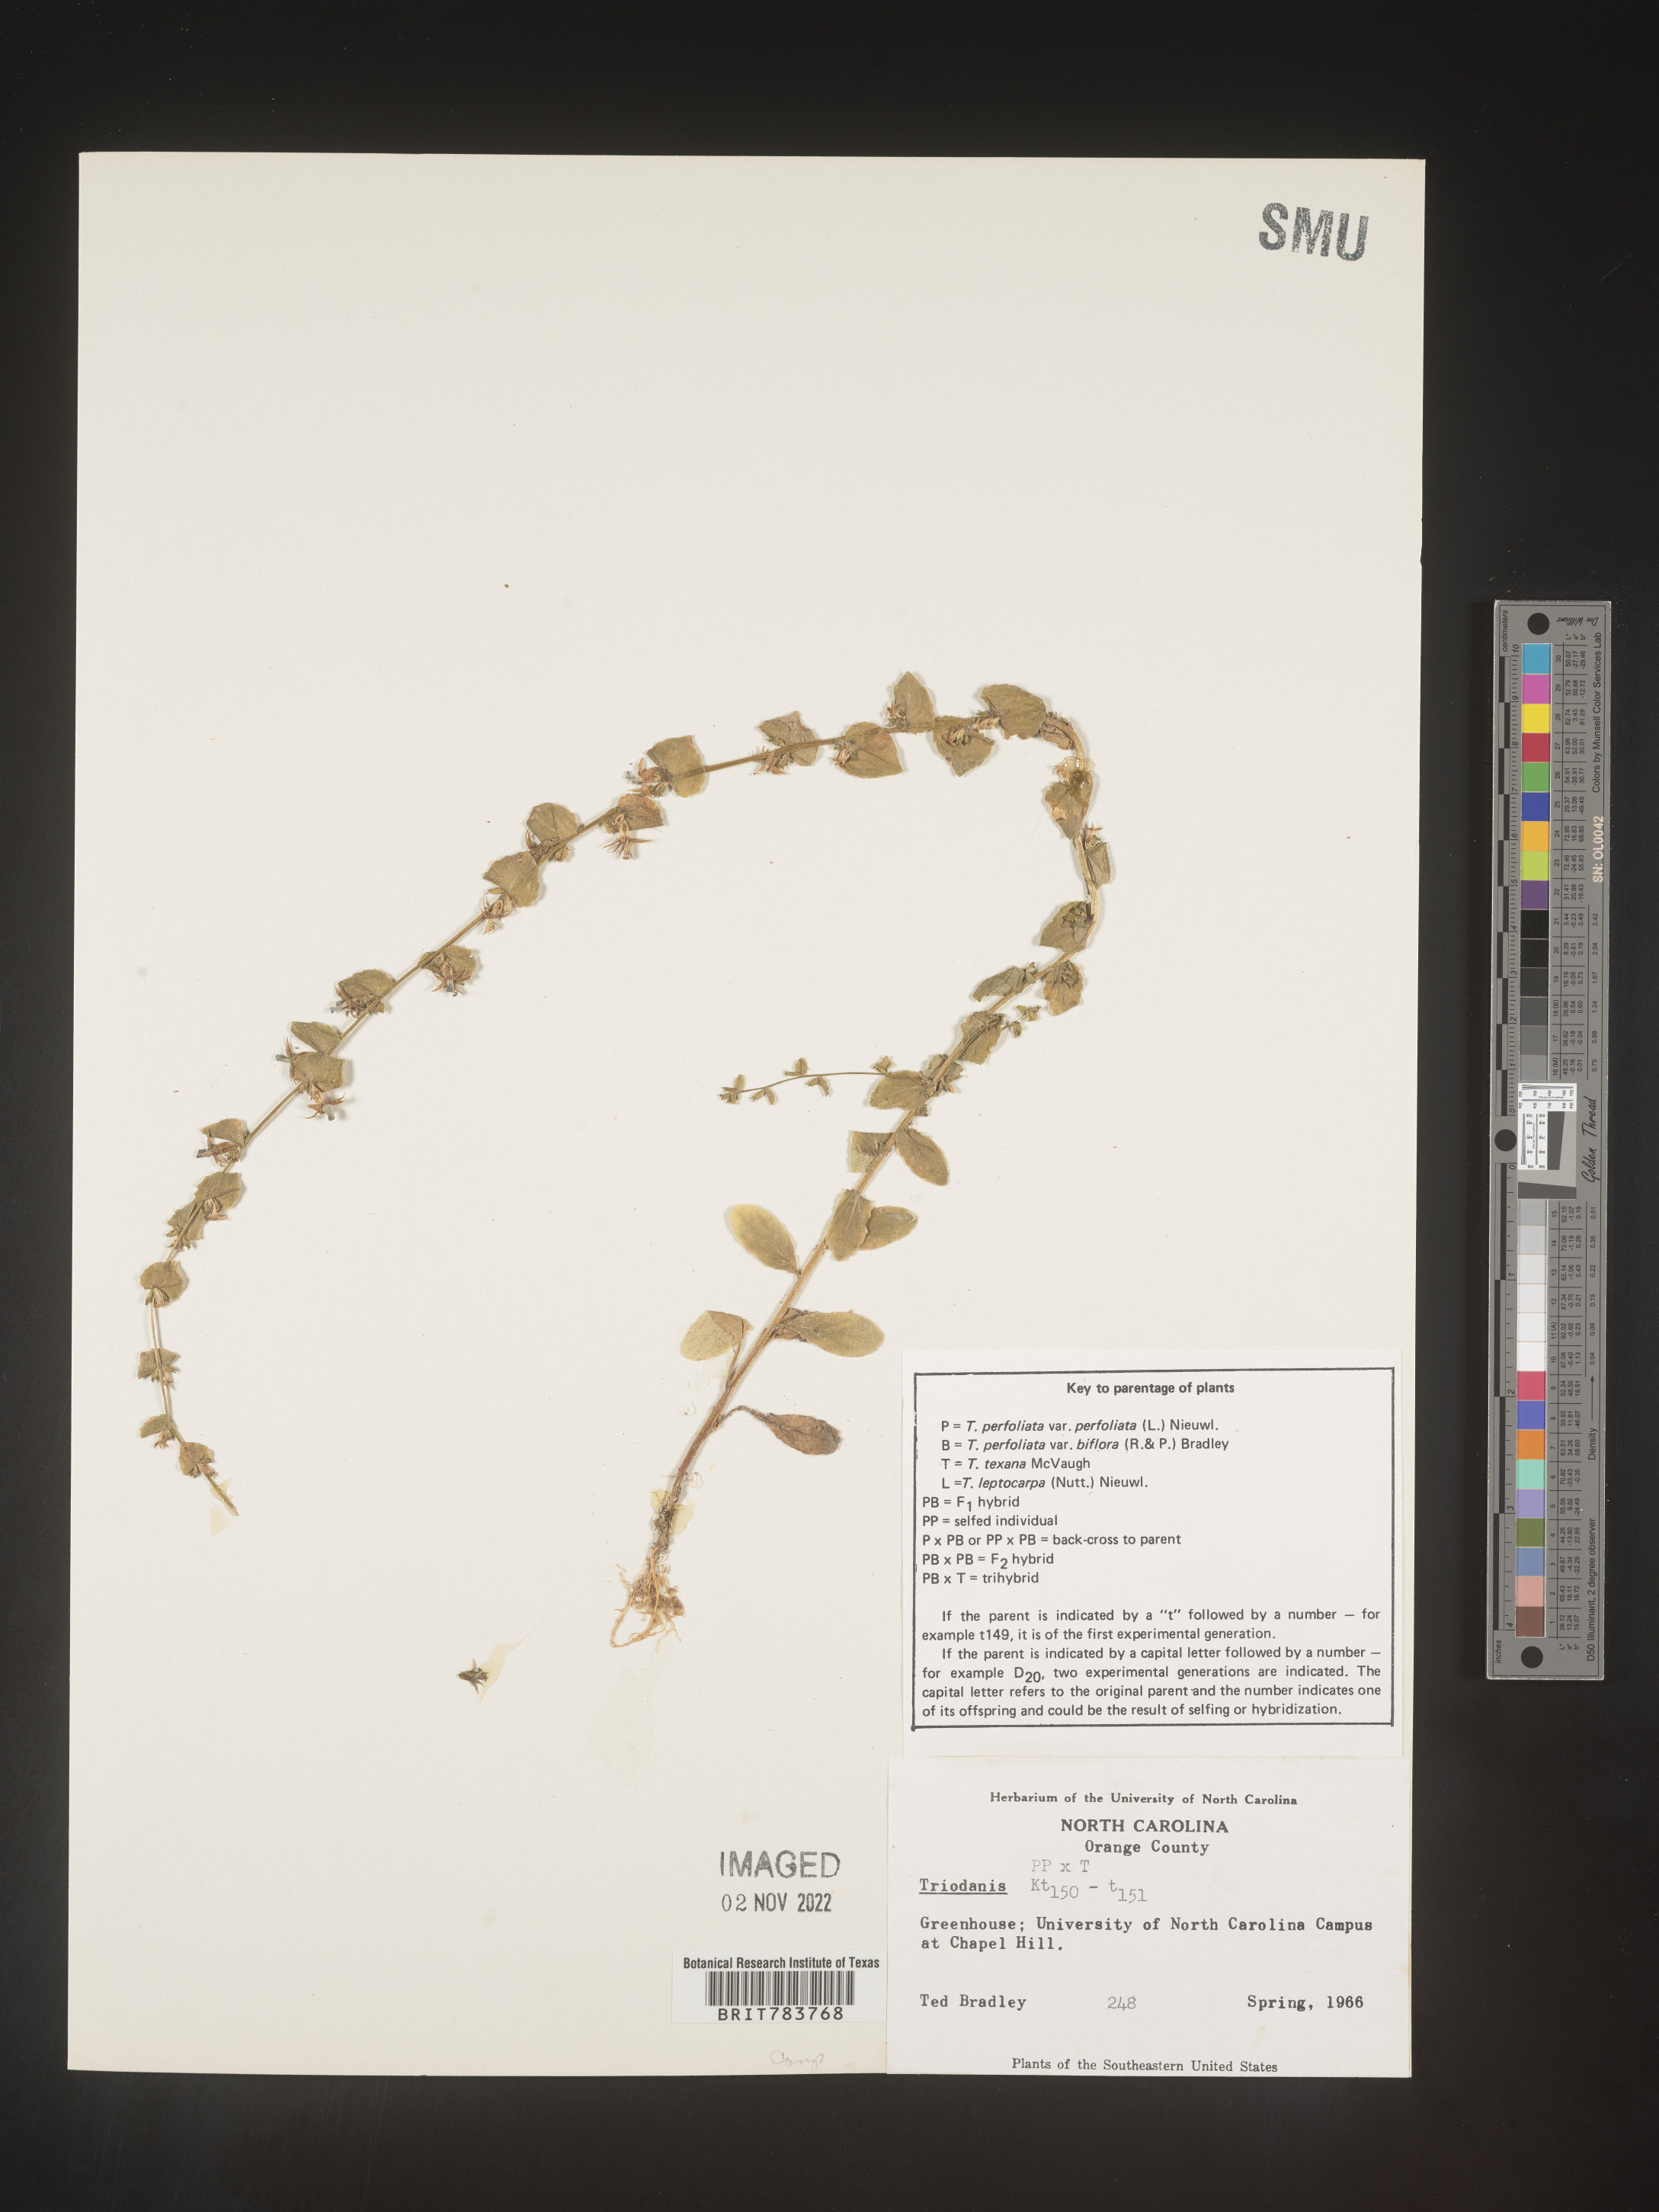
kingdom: Plantae
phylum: Tracheophyta
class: Magnoliopsida
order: Asterales
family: Campanulaceae
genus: Triodanis
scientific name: Triodanis
